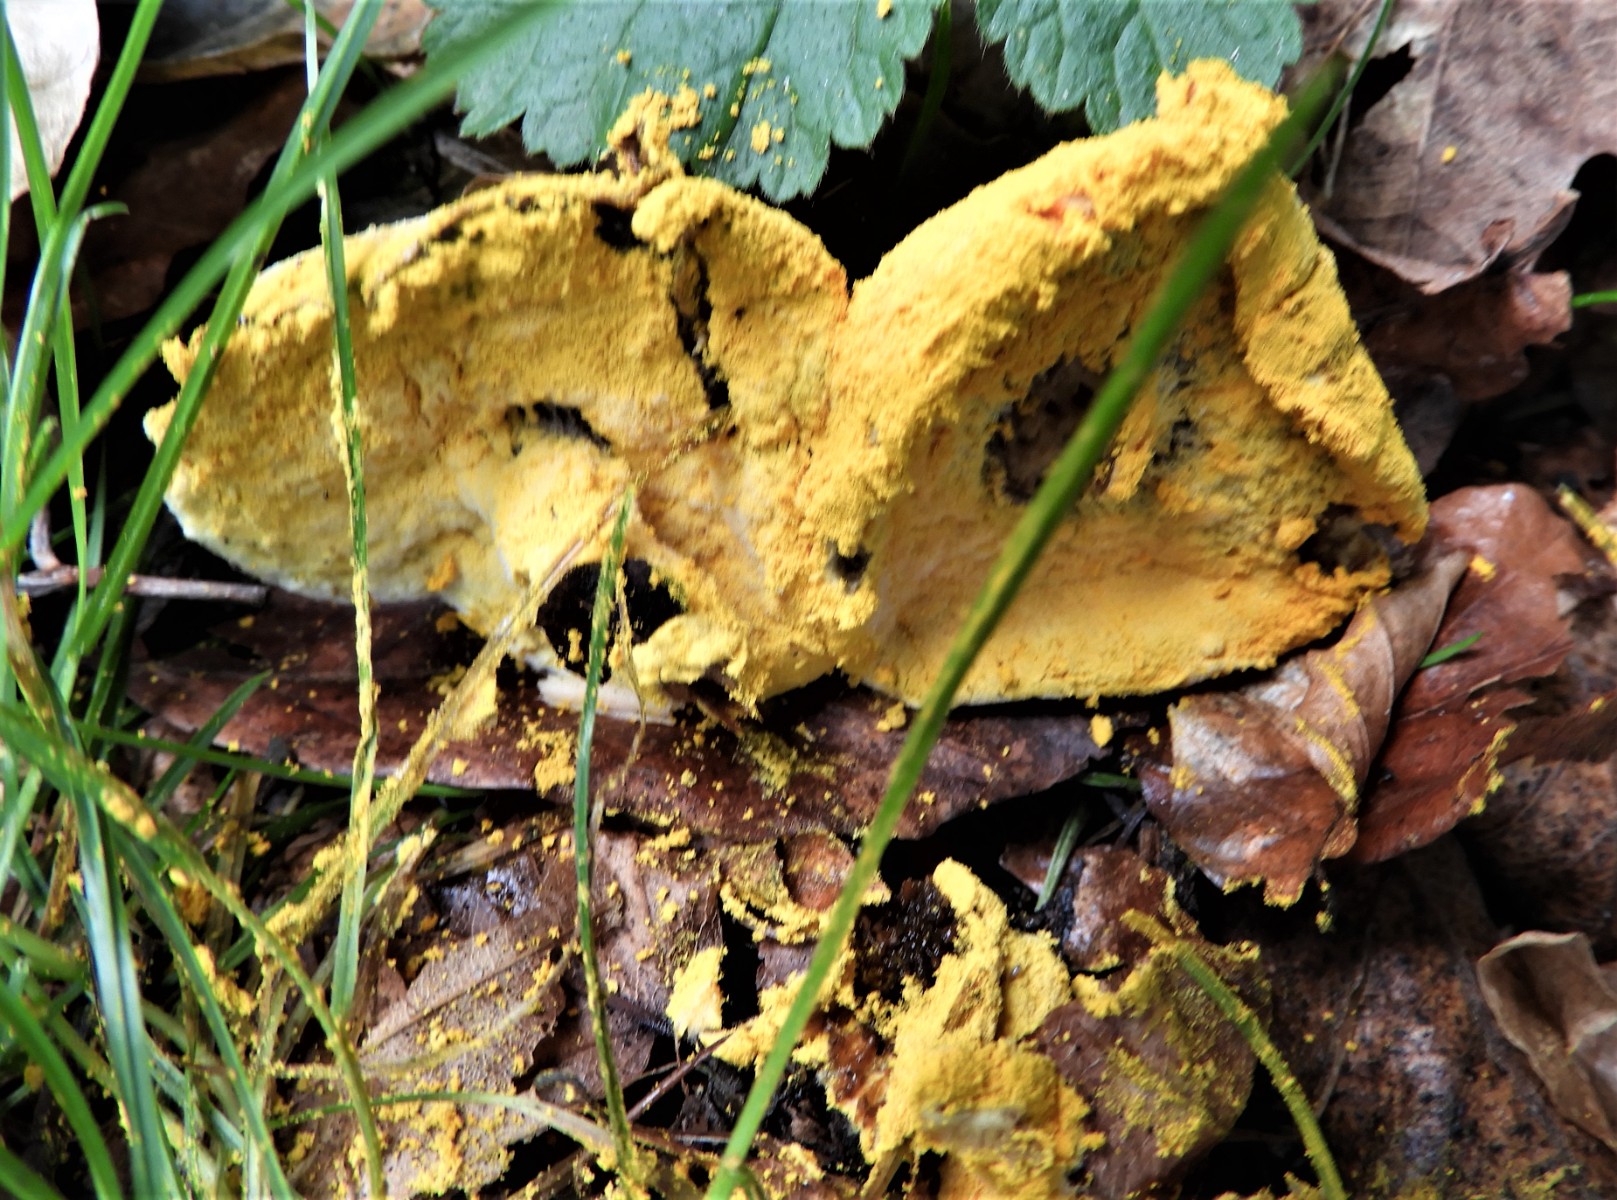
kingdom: Fungi
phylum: Ascomycota
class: Sordariomycetes
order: Hypocreales
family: Hypocreaceae
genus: Hypomyces
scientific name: Hypomyces microspermus
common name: dværgrørhat-snylteskorpe
